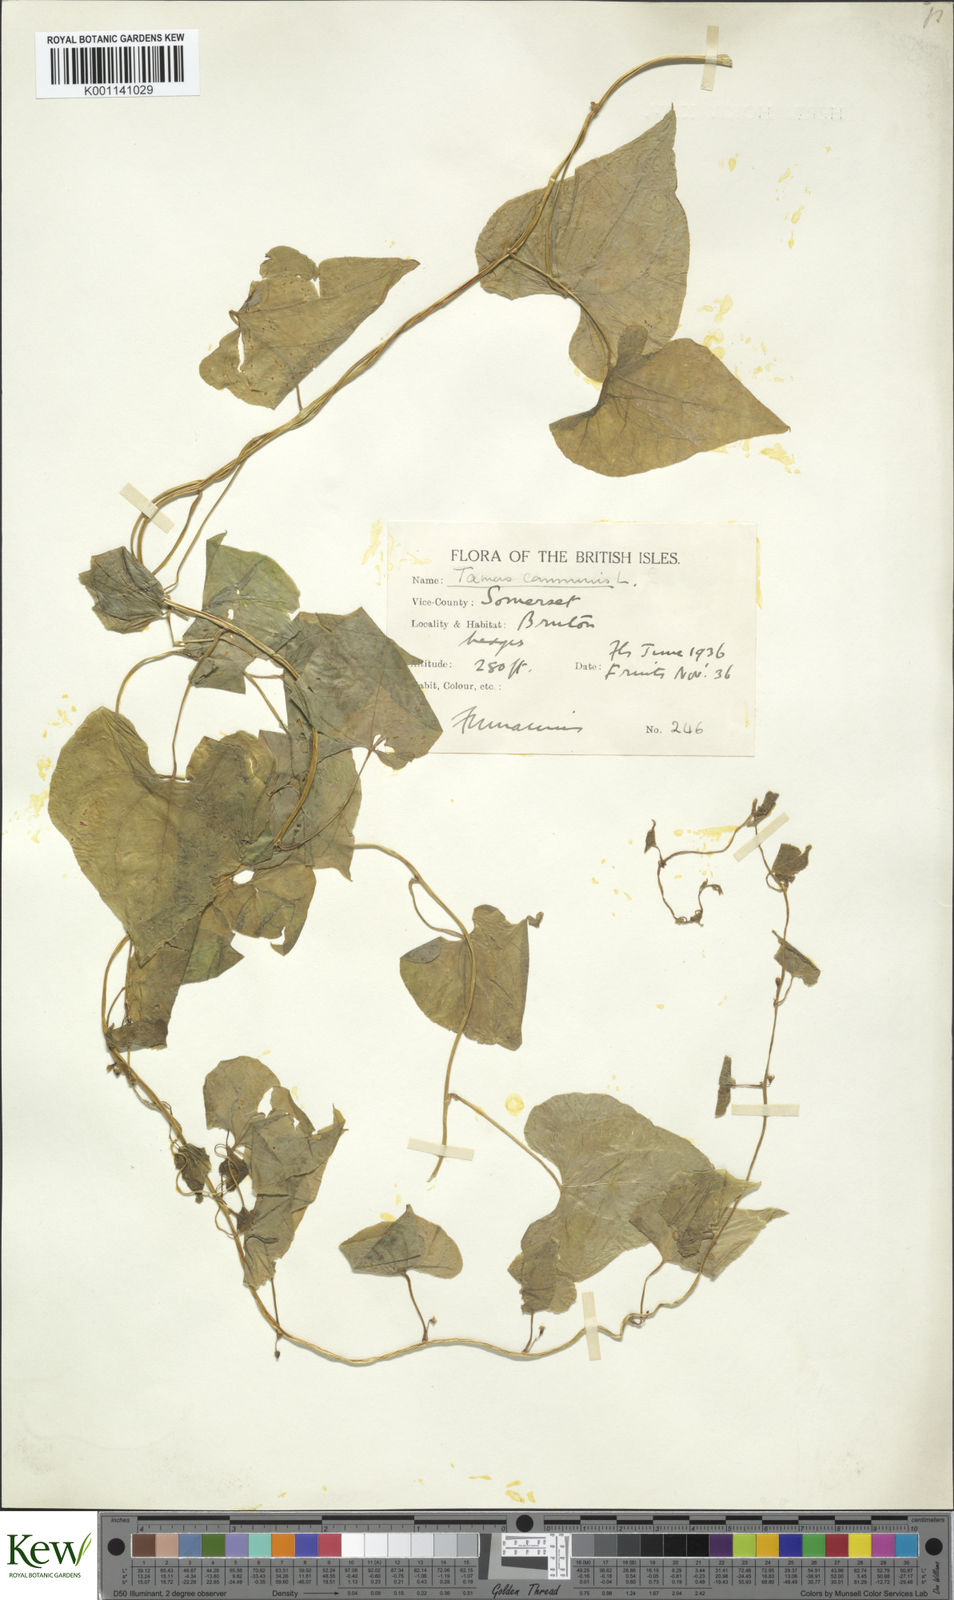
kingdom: Plantae
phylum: Tracheophyta
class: Liliopsida
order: Dioscoreales
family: Dioscoreaceae
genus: Dioscorea
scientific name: Dioscorea communis
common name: Black-bindweed
